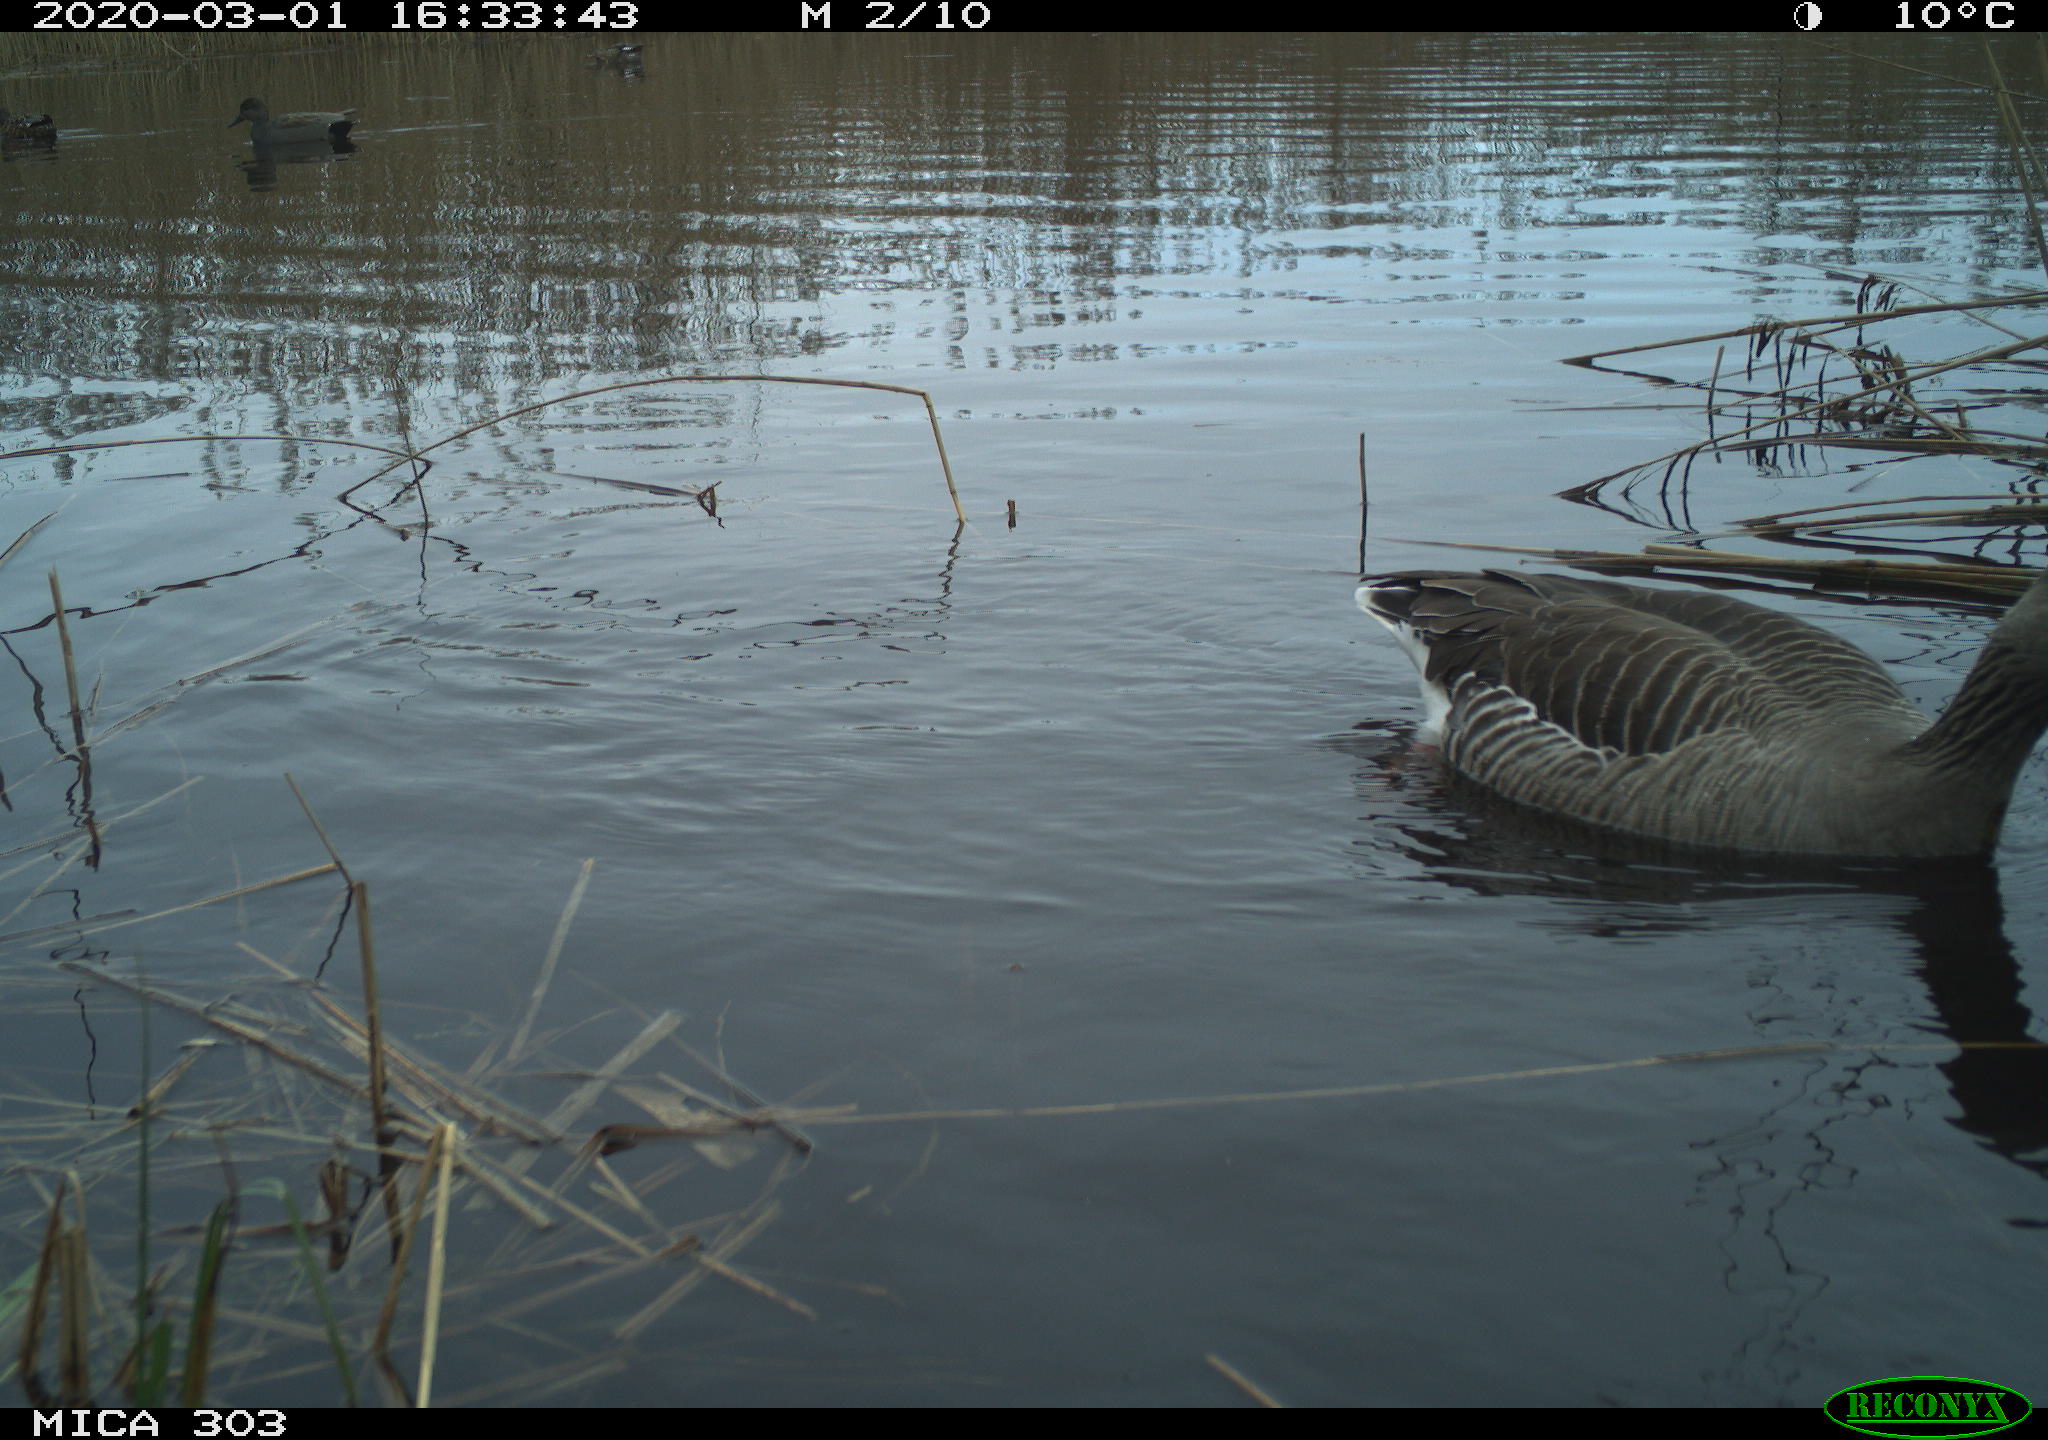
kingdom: Animalia
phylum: Chordata
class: Aves
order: Anseriformes
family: Anatidae
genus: Anser
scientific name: Anser anser
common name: Greylag goose
